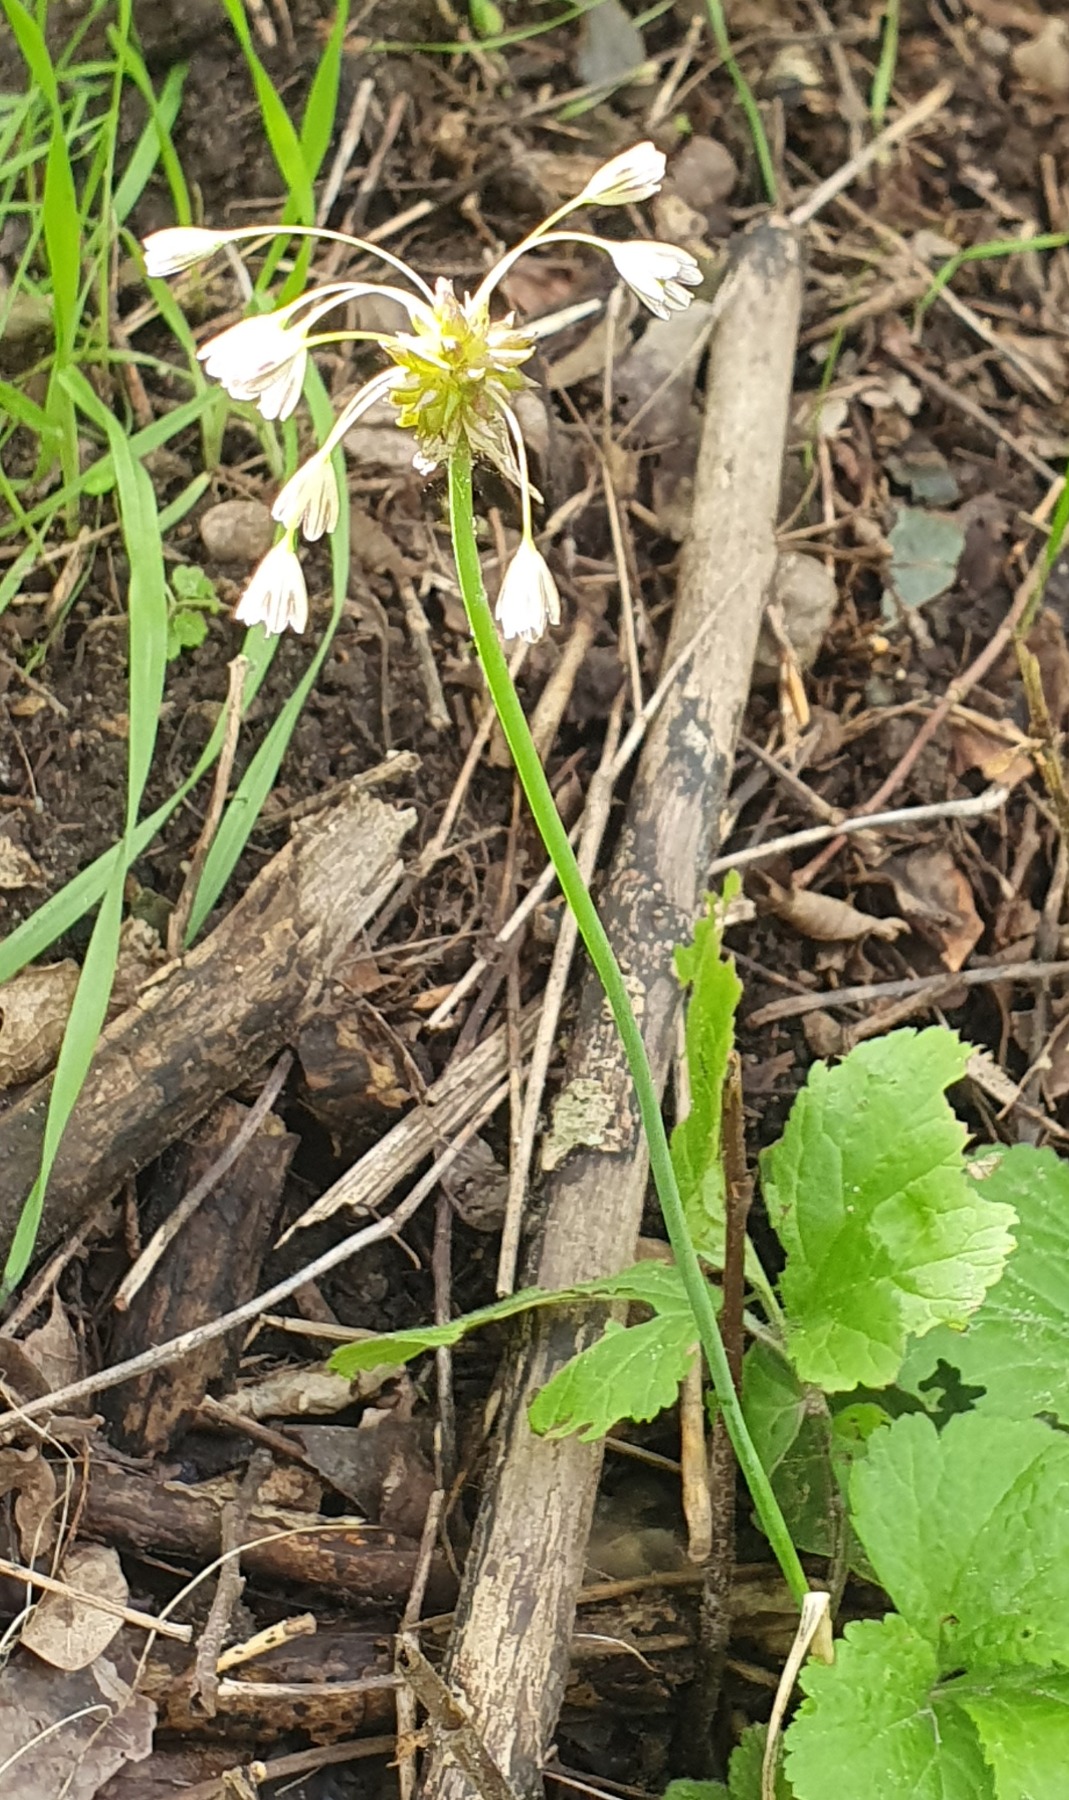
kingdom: Plantae
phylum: Tracheophyta
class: Liliopsida
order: Asparagales
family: Amaryllidaceae
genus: Allium
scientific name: Allium oleraceum
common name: Vild løg
